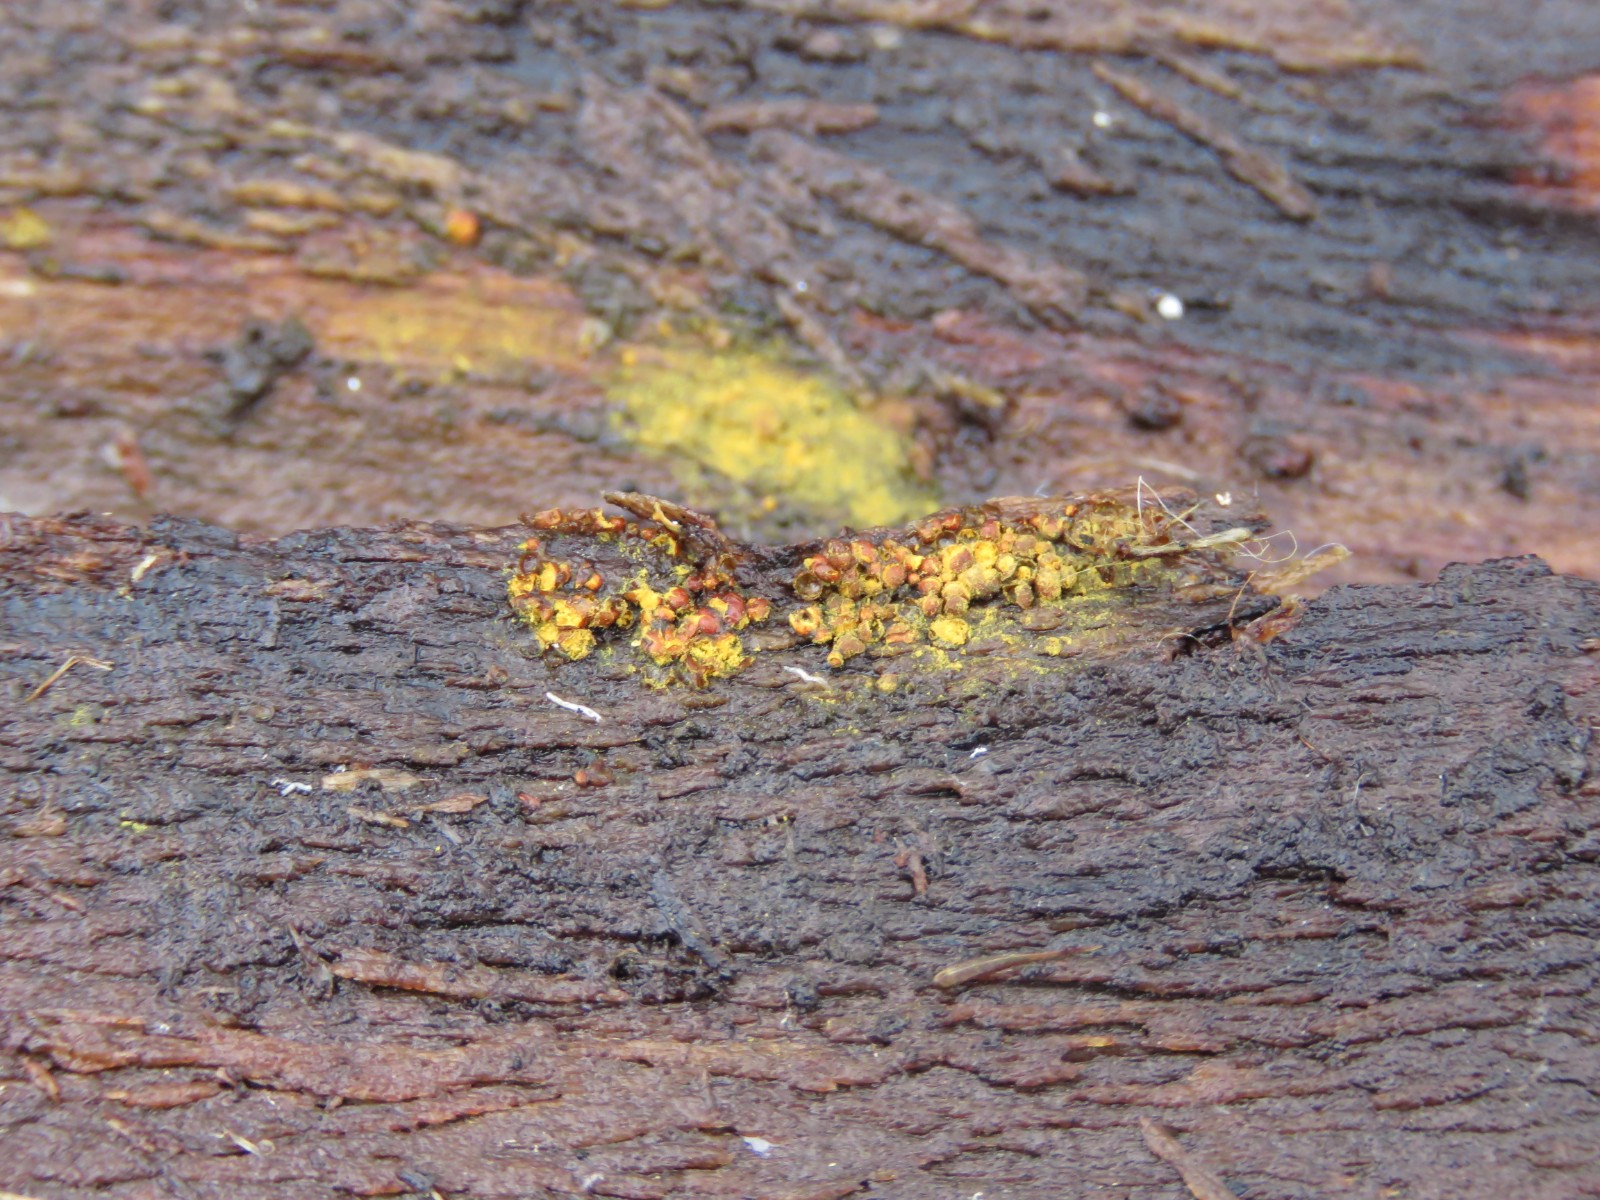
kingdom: Protozoa
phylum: Mycetozoa
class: Myxomycetes
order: Trichiales
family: Trichiaceae
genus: Perichaena
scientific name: Perichaena corticalis
